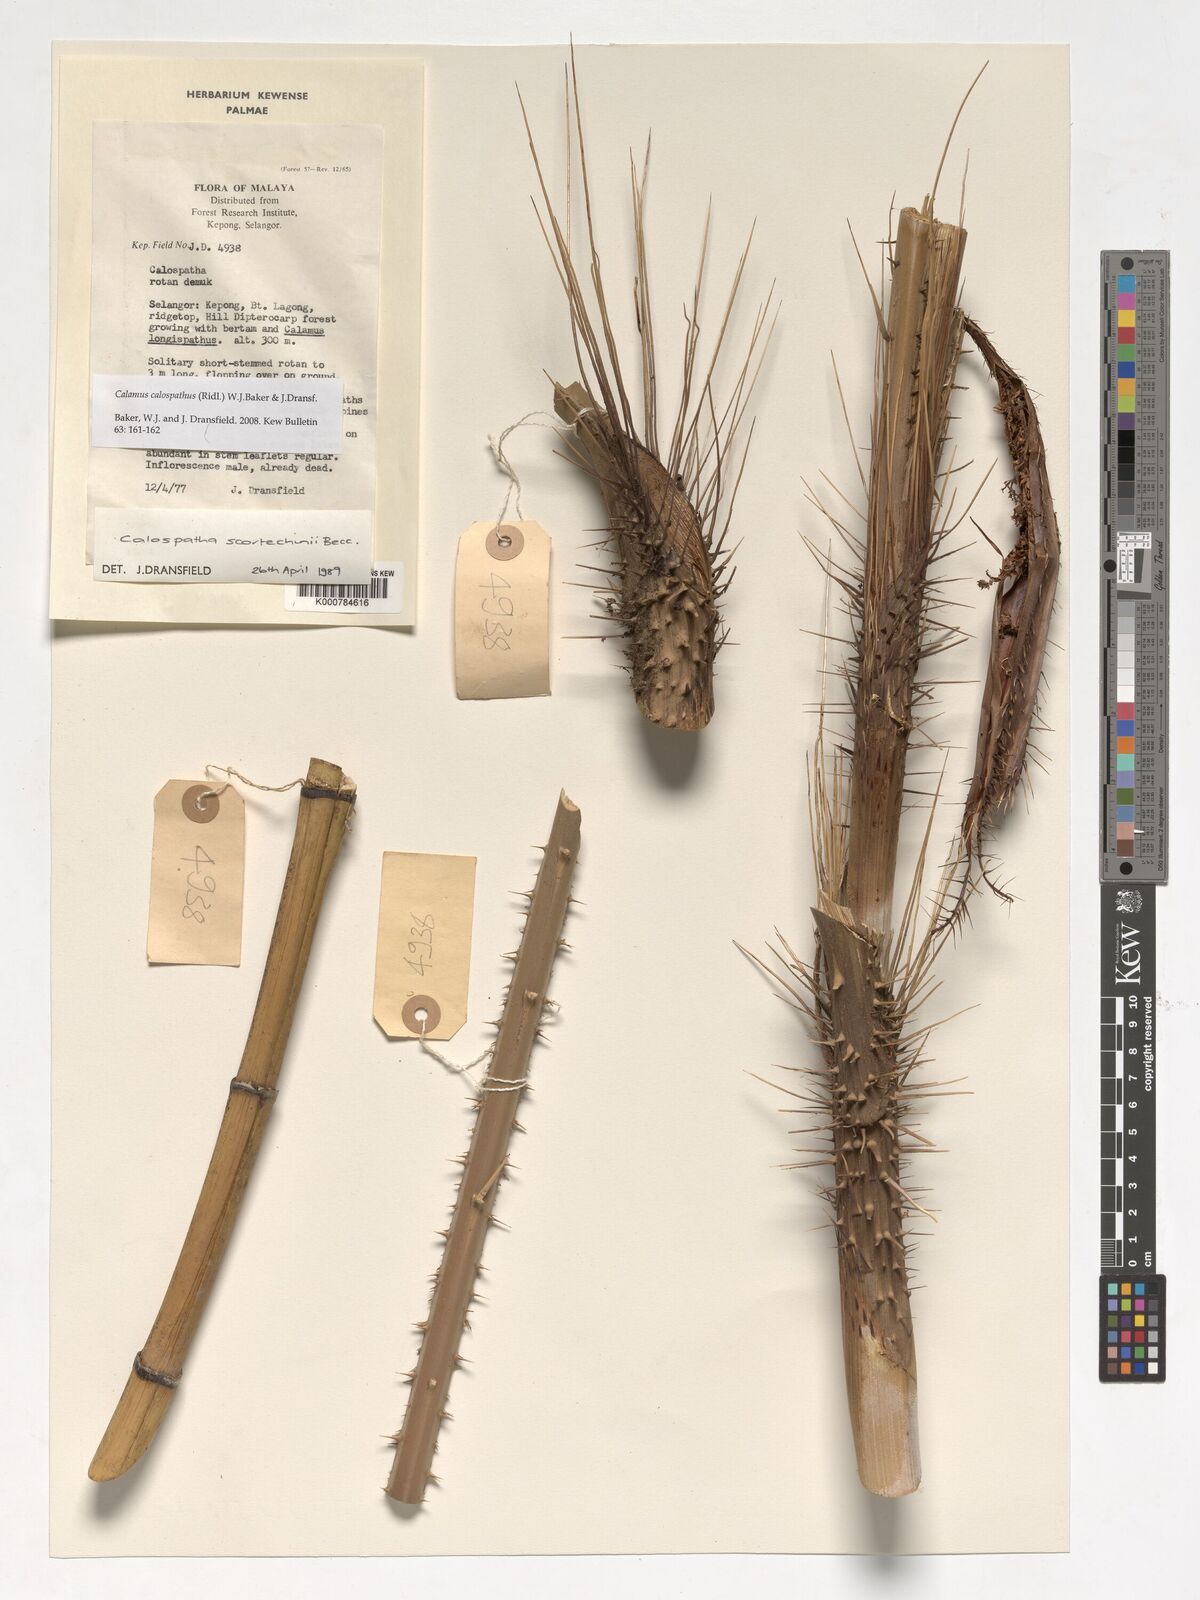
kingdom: Plantae
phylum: Tracheophyta
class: Liliopsida
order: Arecales
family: Arecaceae
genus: Calamus
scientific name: Calamus calospathus
